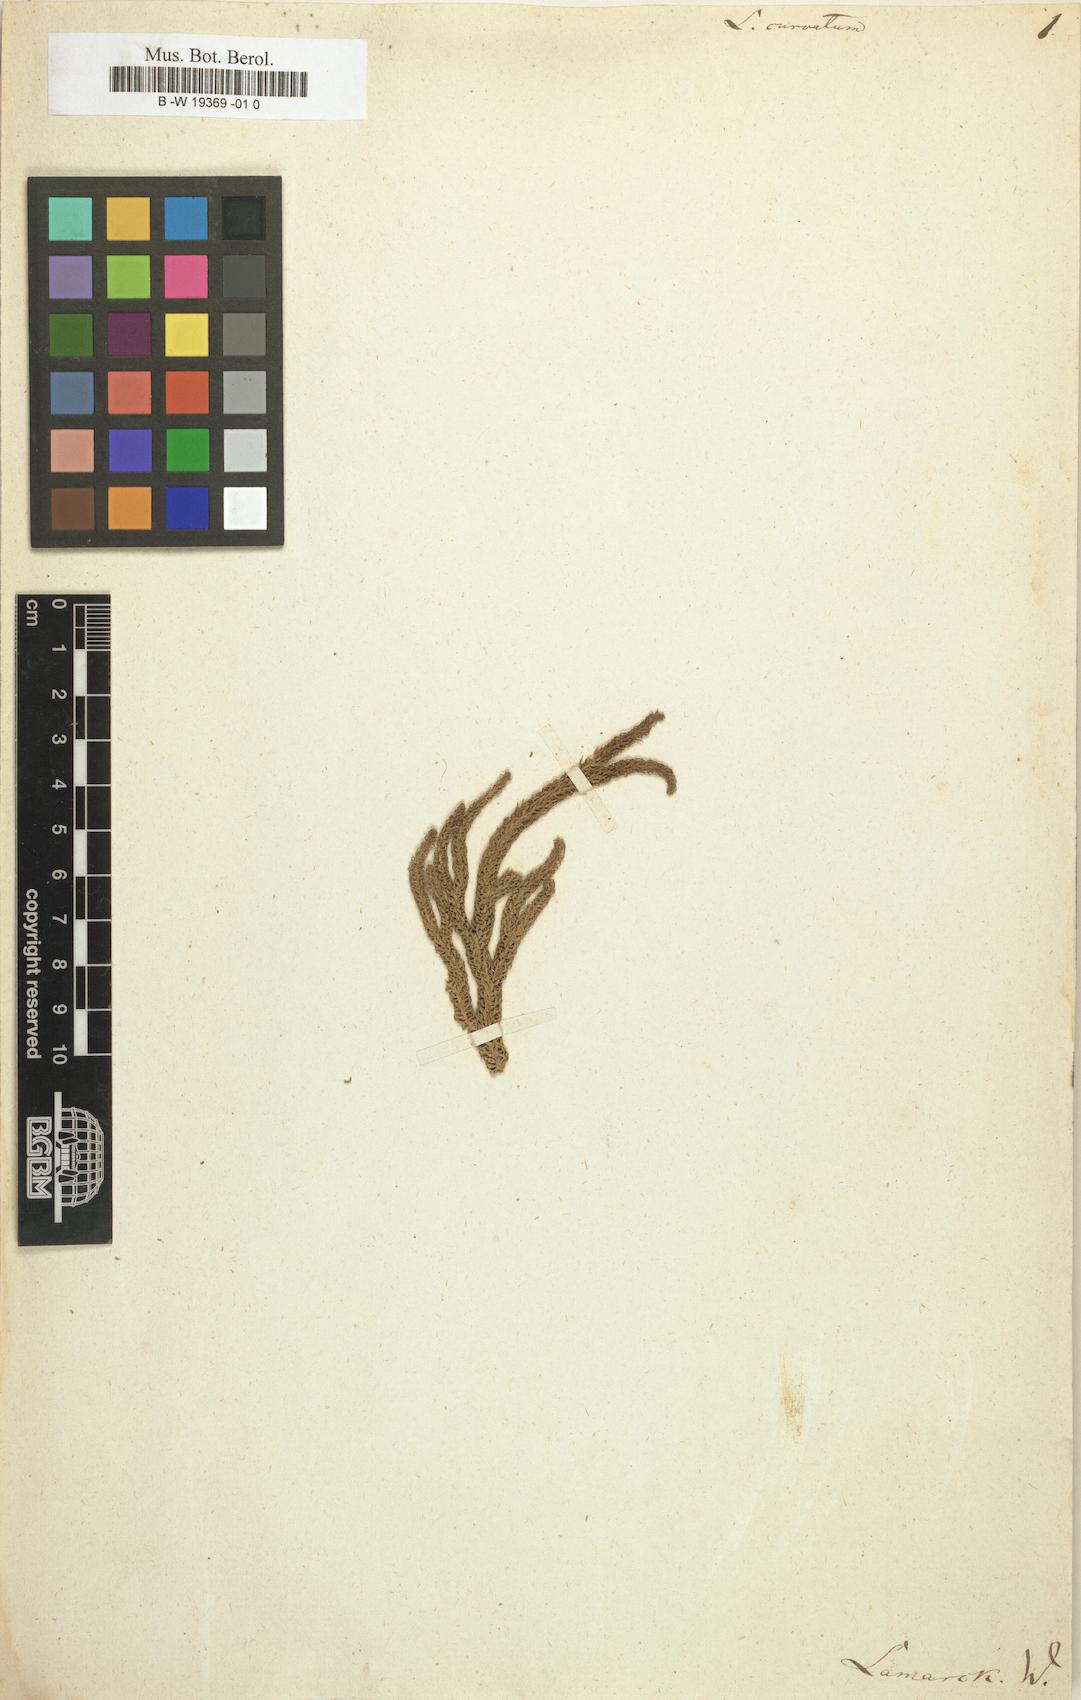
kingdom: Plantae
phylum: Tracheophyta
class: Lycopodiopsida
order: Lycopodiales
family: Lycopodiaceae
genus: Palhinhaea
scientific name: Palhinhaea curvata
